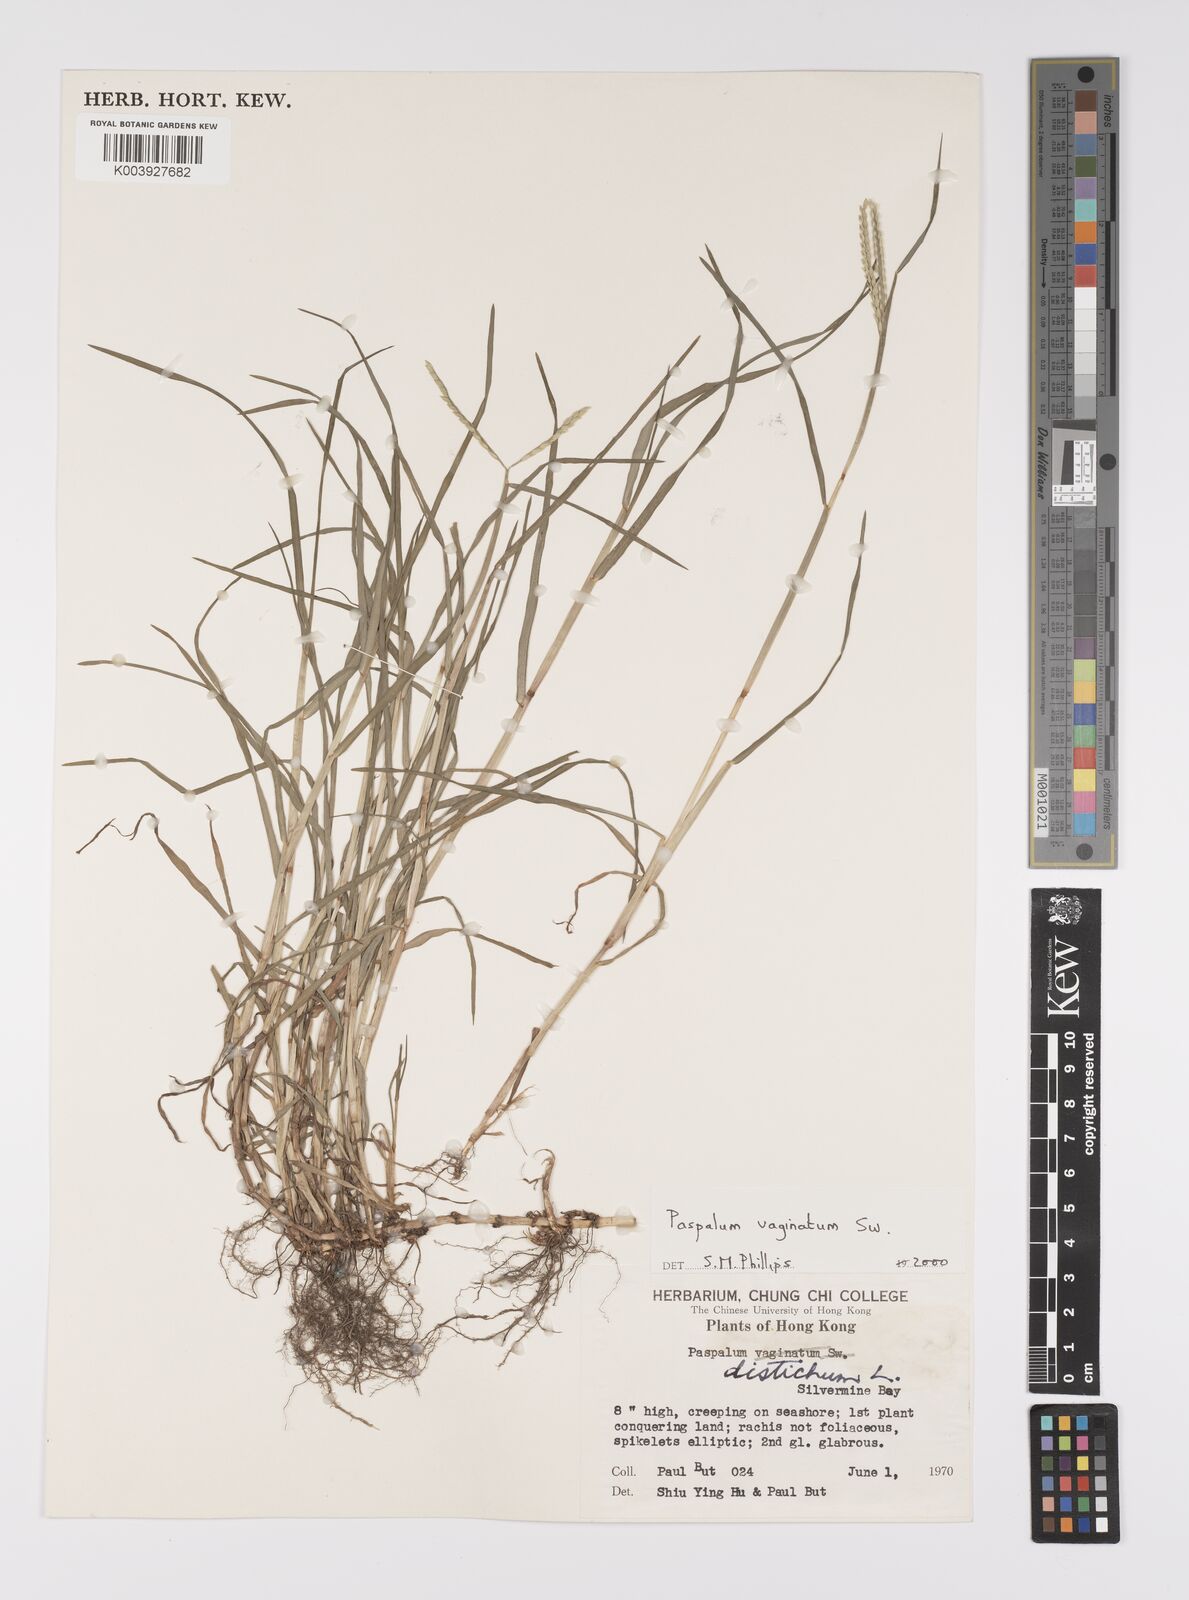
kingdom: Plantae
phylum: Tracheophyta
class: Liliopsida
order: Poales
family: Poaceae
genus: Paspalum
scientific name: Paspalum vaginatum
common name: Seashore paspalum
